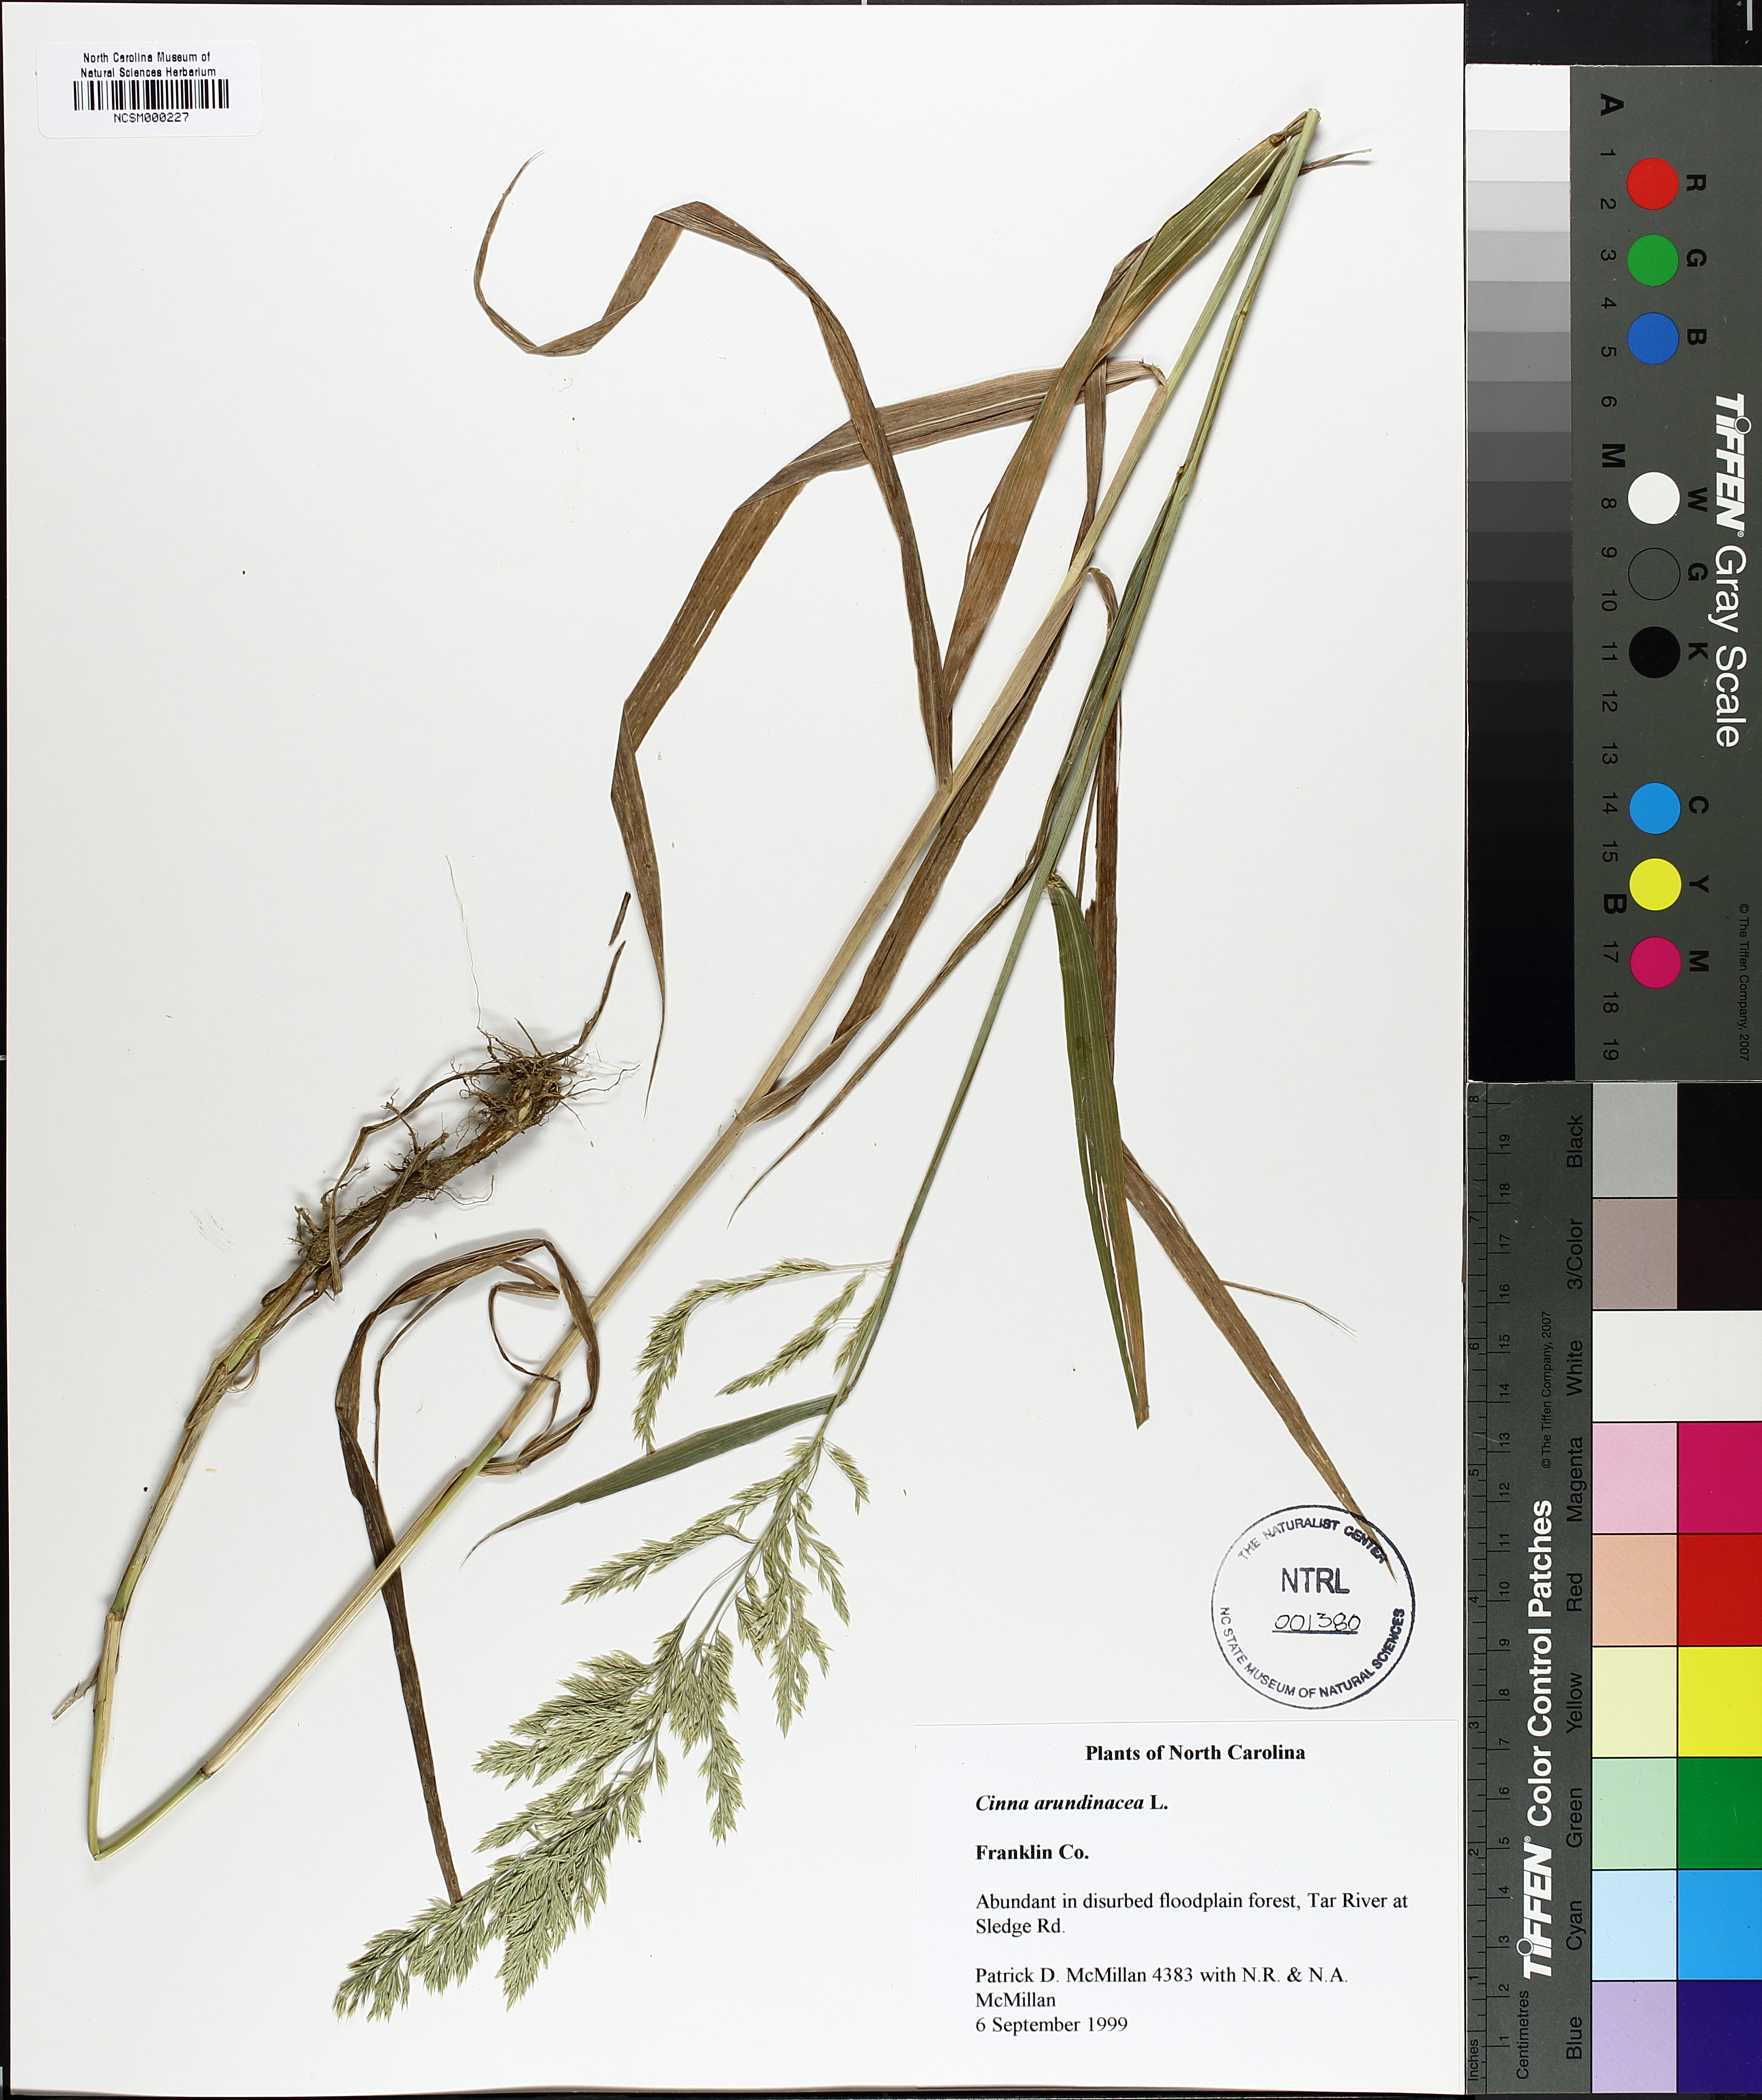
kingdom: Plantae
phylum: Tracheophyta
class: Liliopsida
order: Poales
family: Poaceae
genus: Cinna
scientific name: Cinna arundinacea
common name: Stout woodreed
